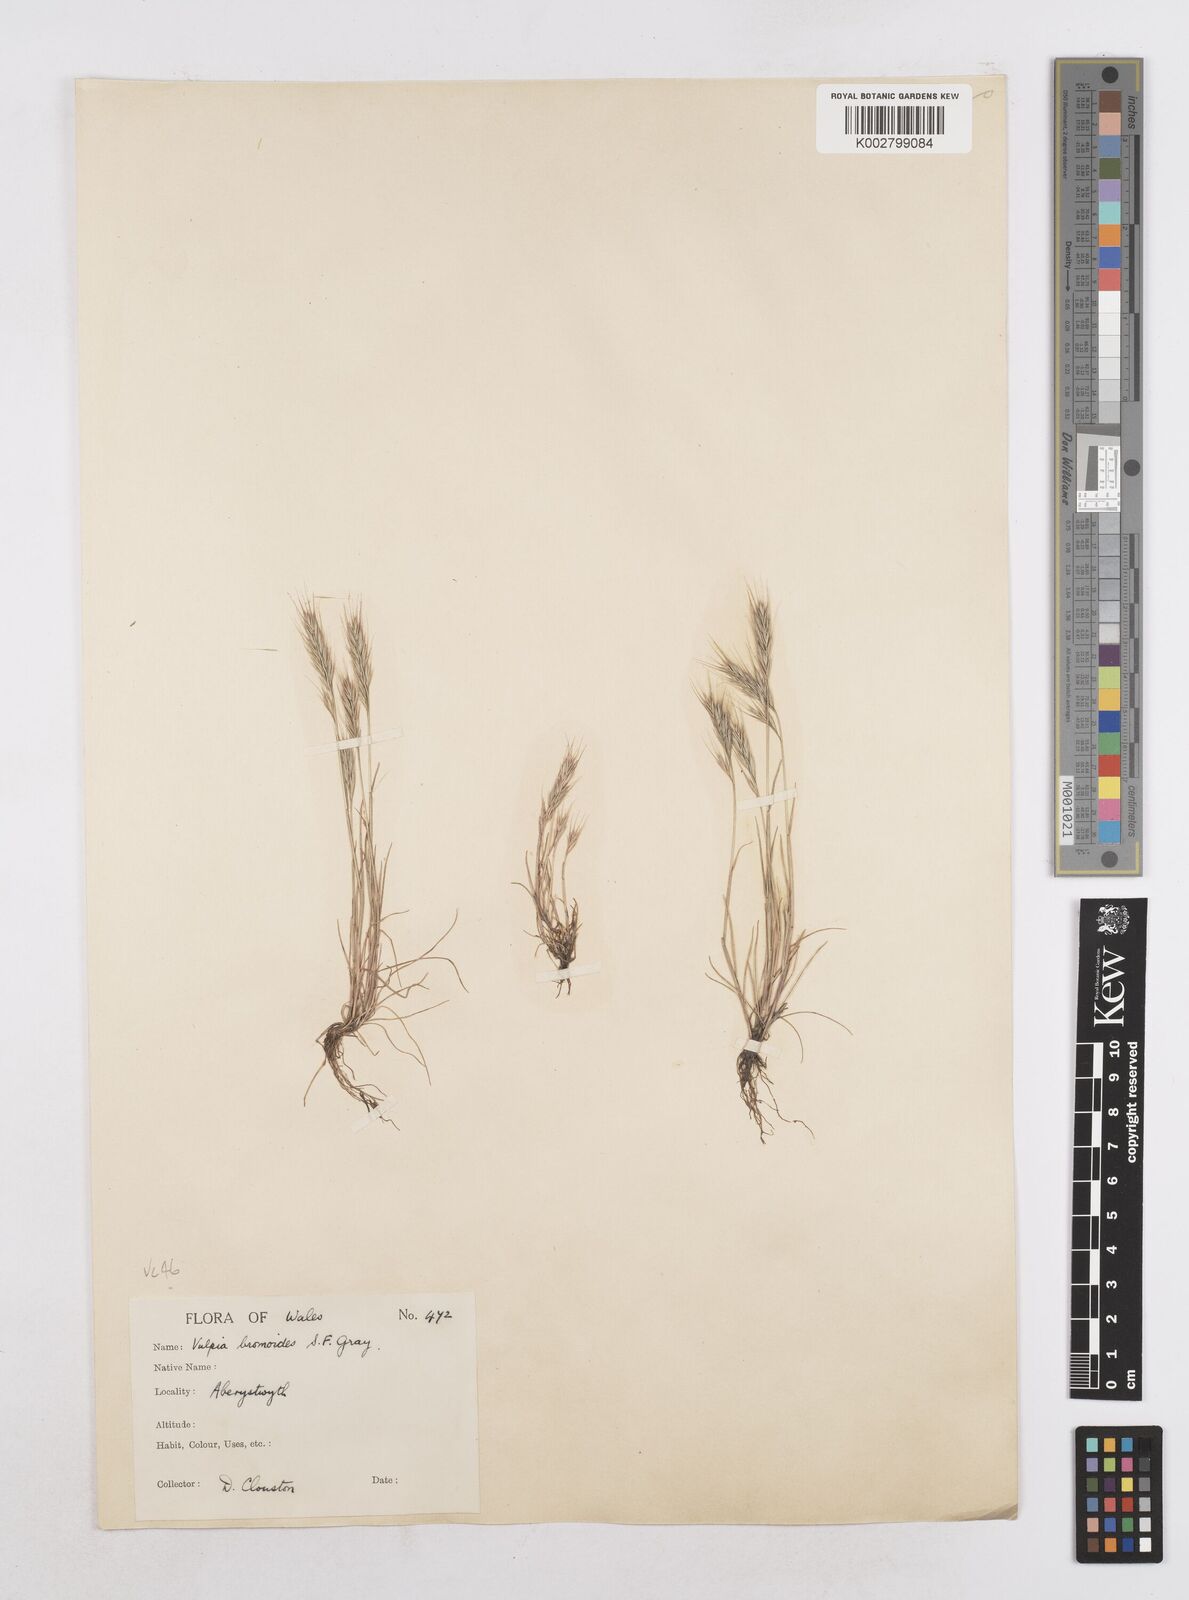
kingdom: Plantae
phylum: Tracheophyta
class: Liliopsida
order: Poales
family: Poaceae
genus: Festuca
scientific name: Festuca bromoides
